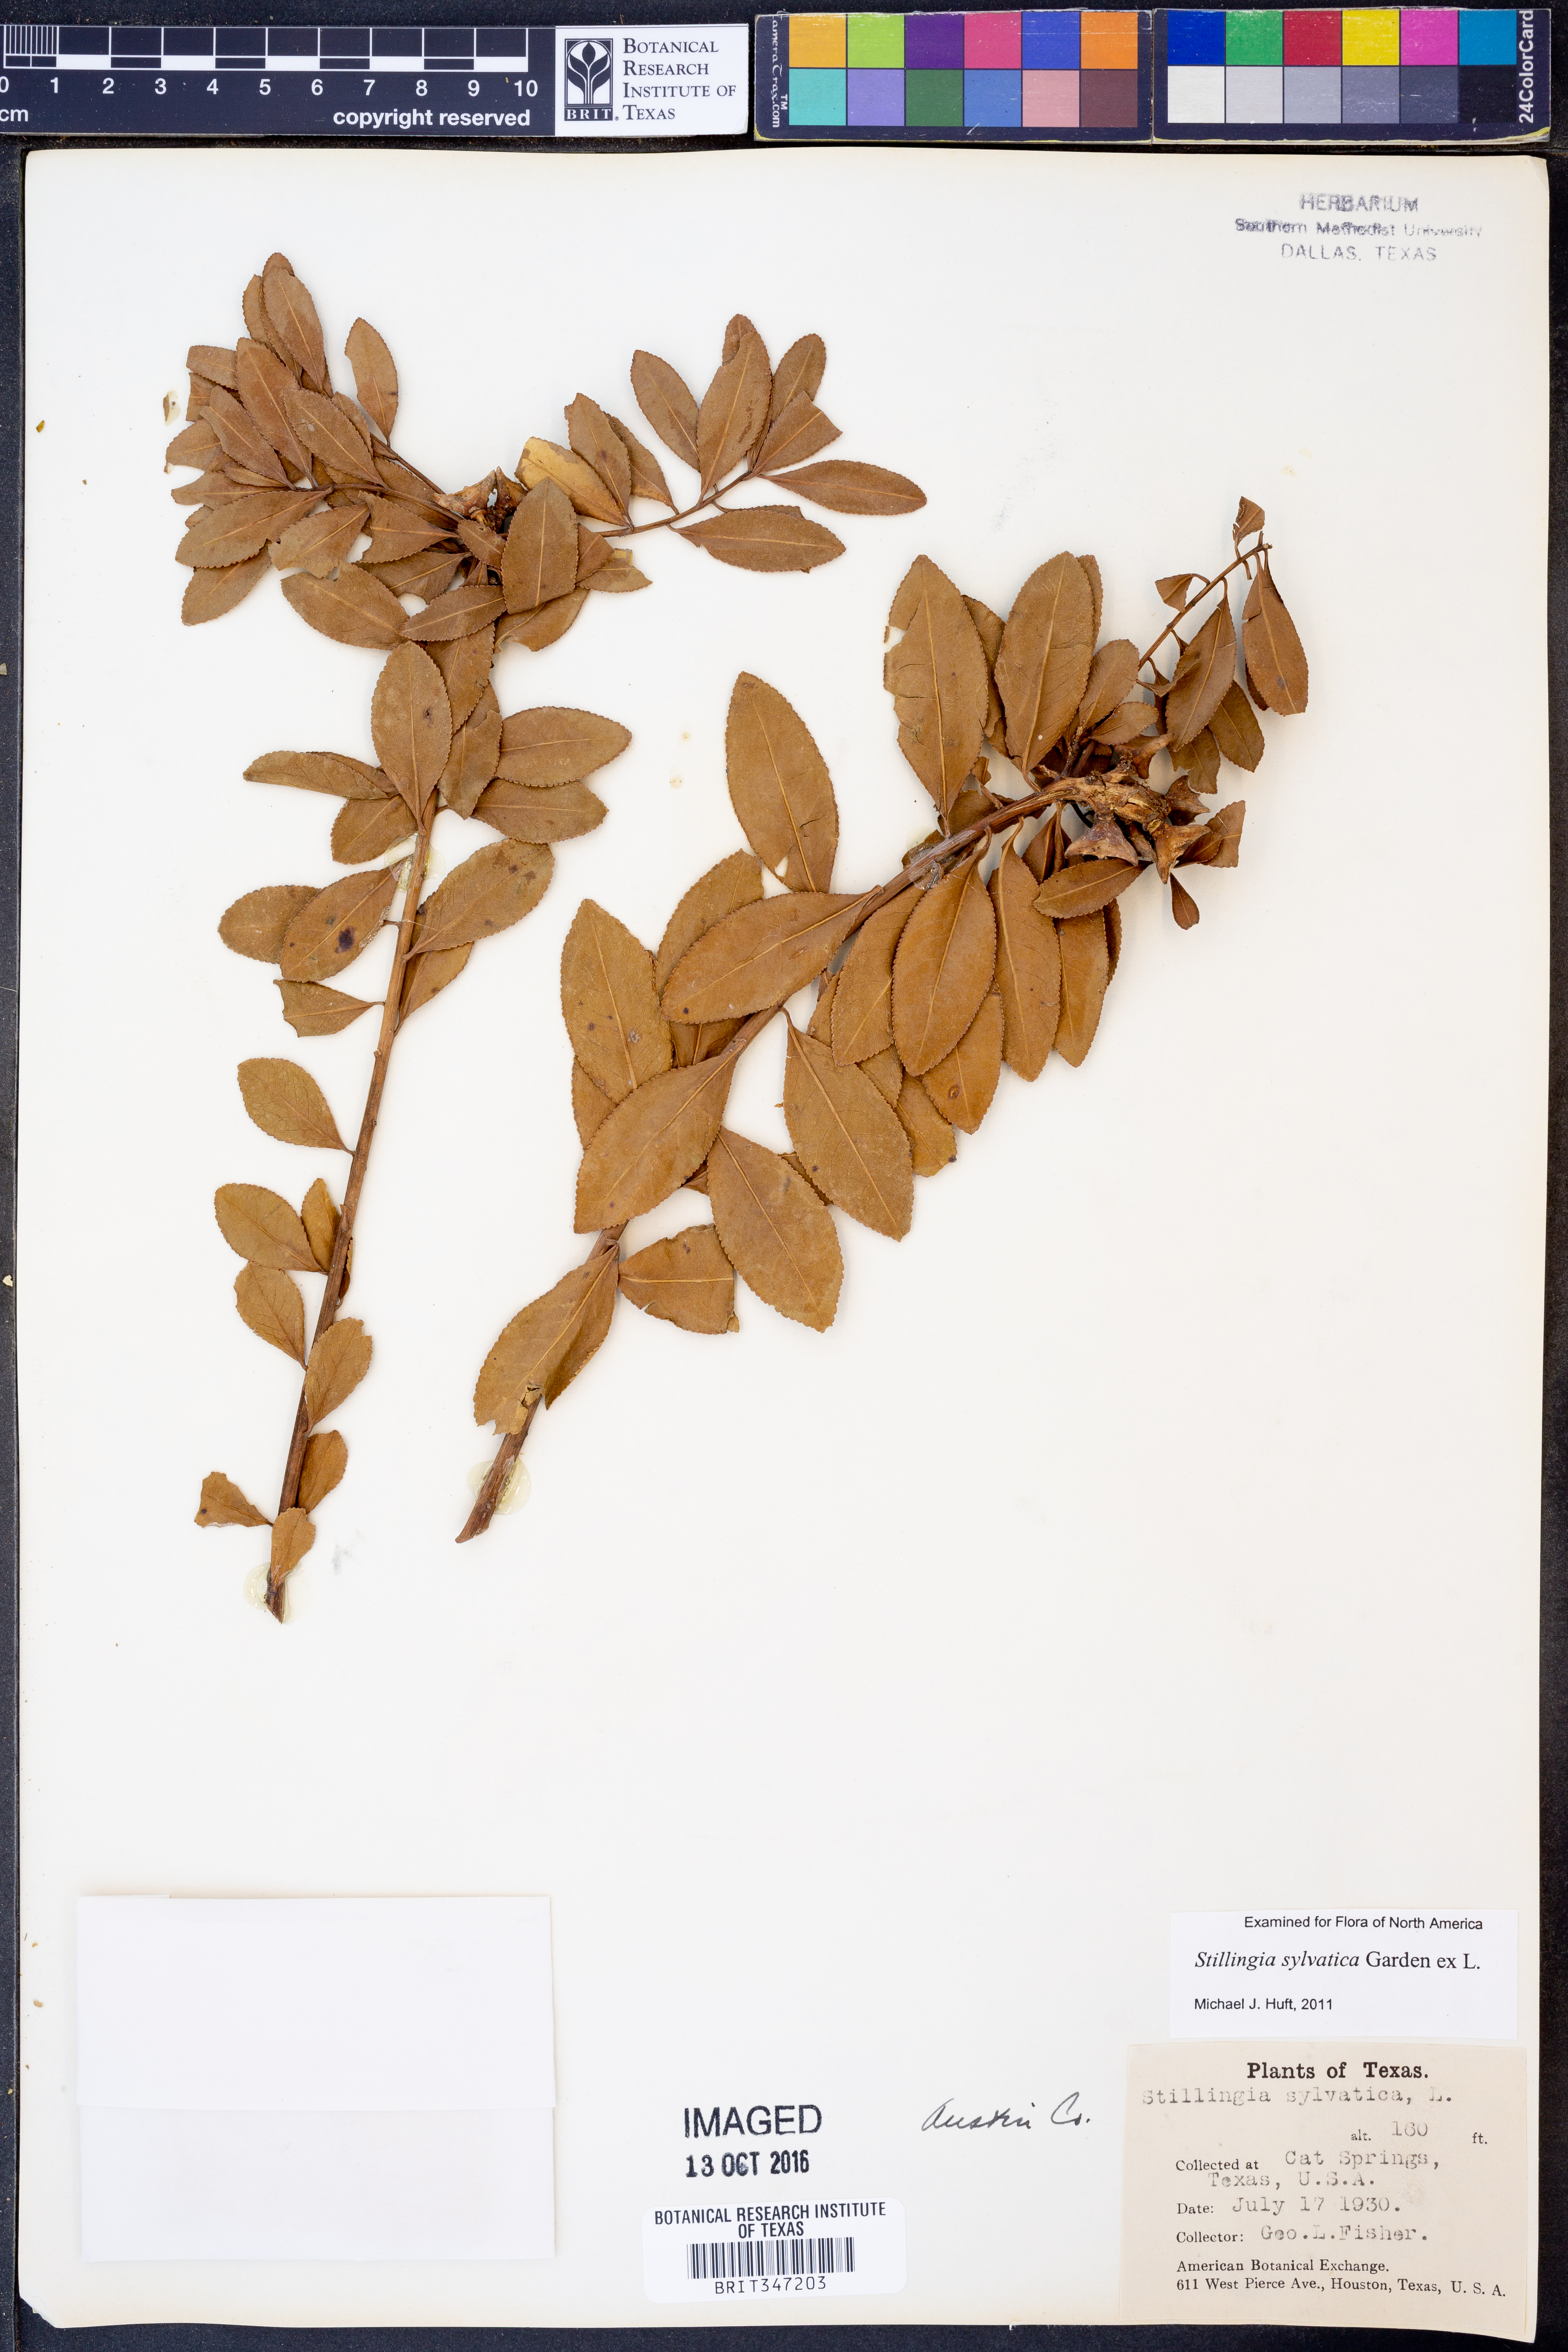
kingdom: Plantae
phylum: Tracheophyta
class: Magnoliopsida
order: Malpighiales
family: Euphorbiaceae
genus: Stillingia
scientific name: Stillingia sylvatica
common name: Queen's-delight
